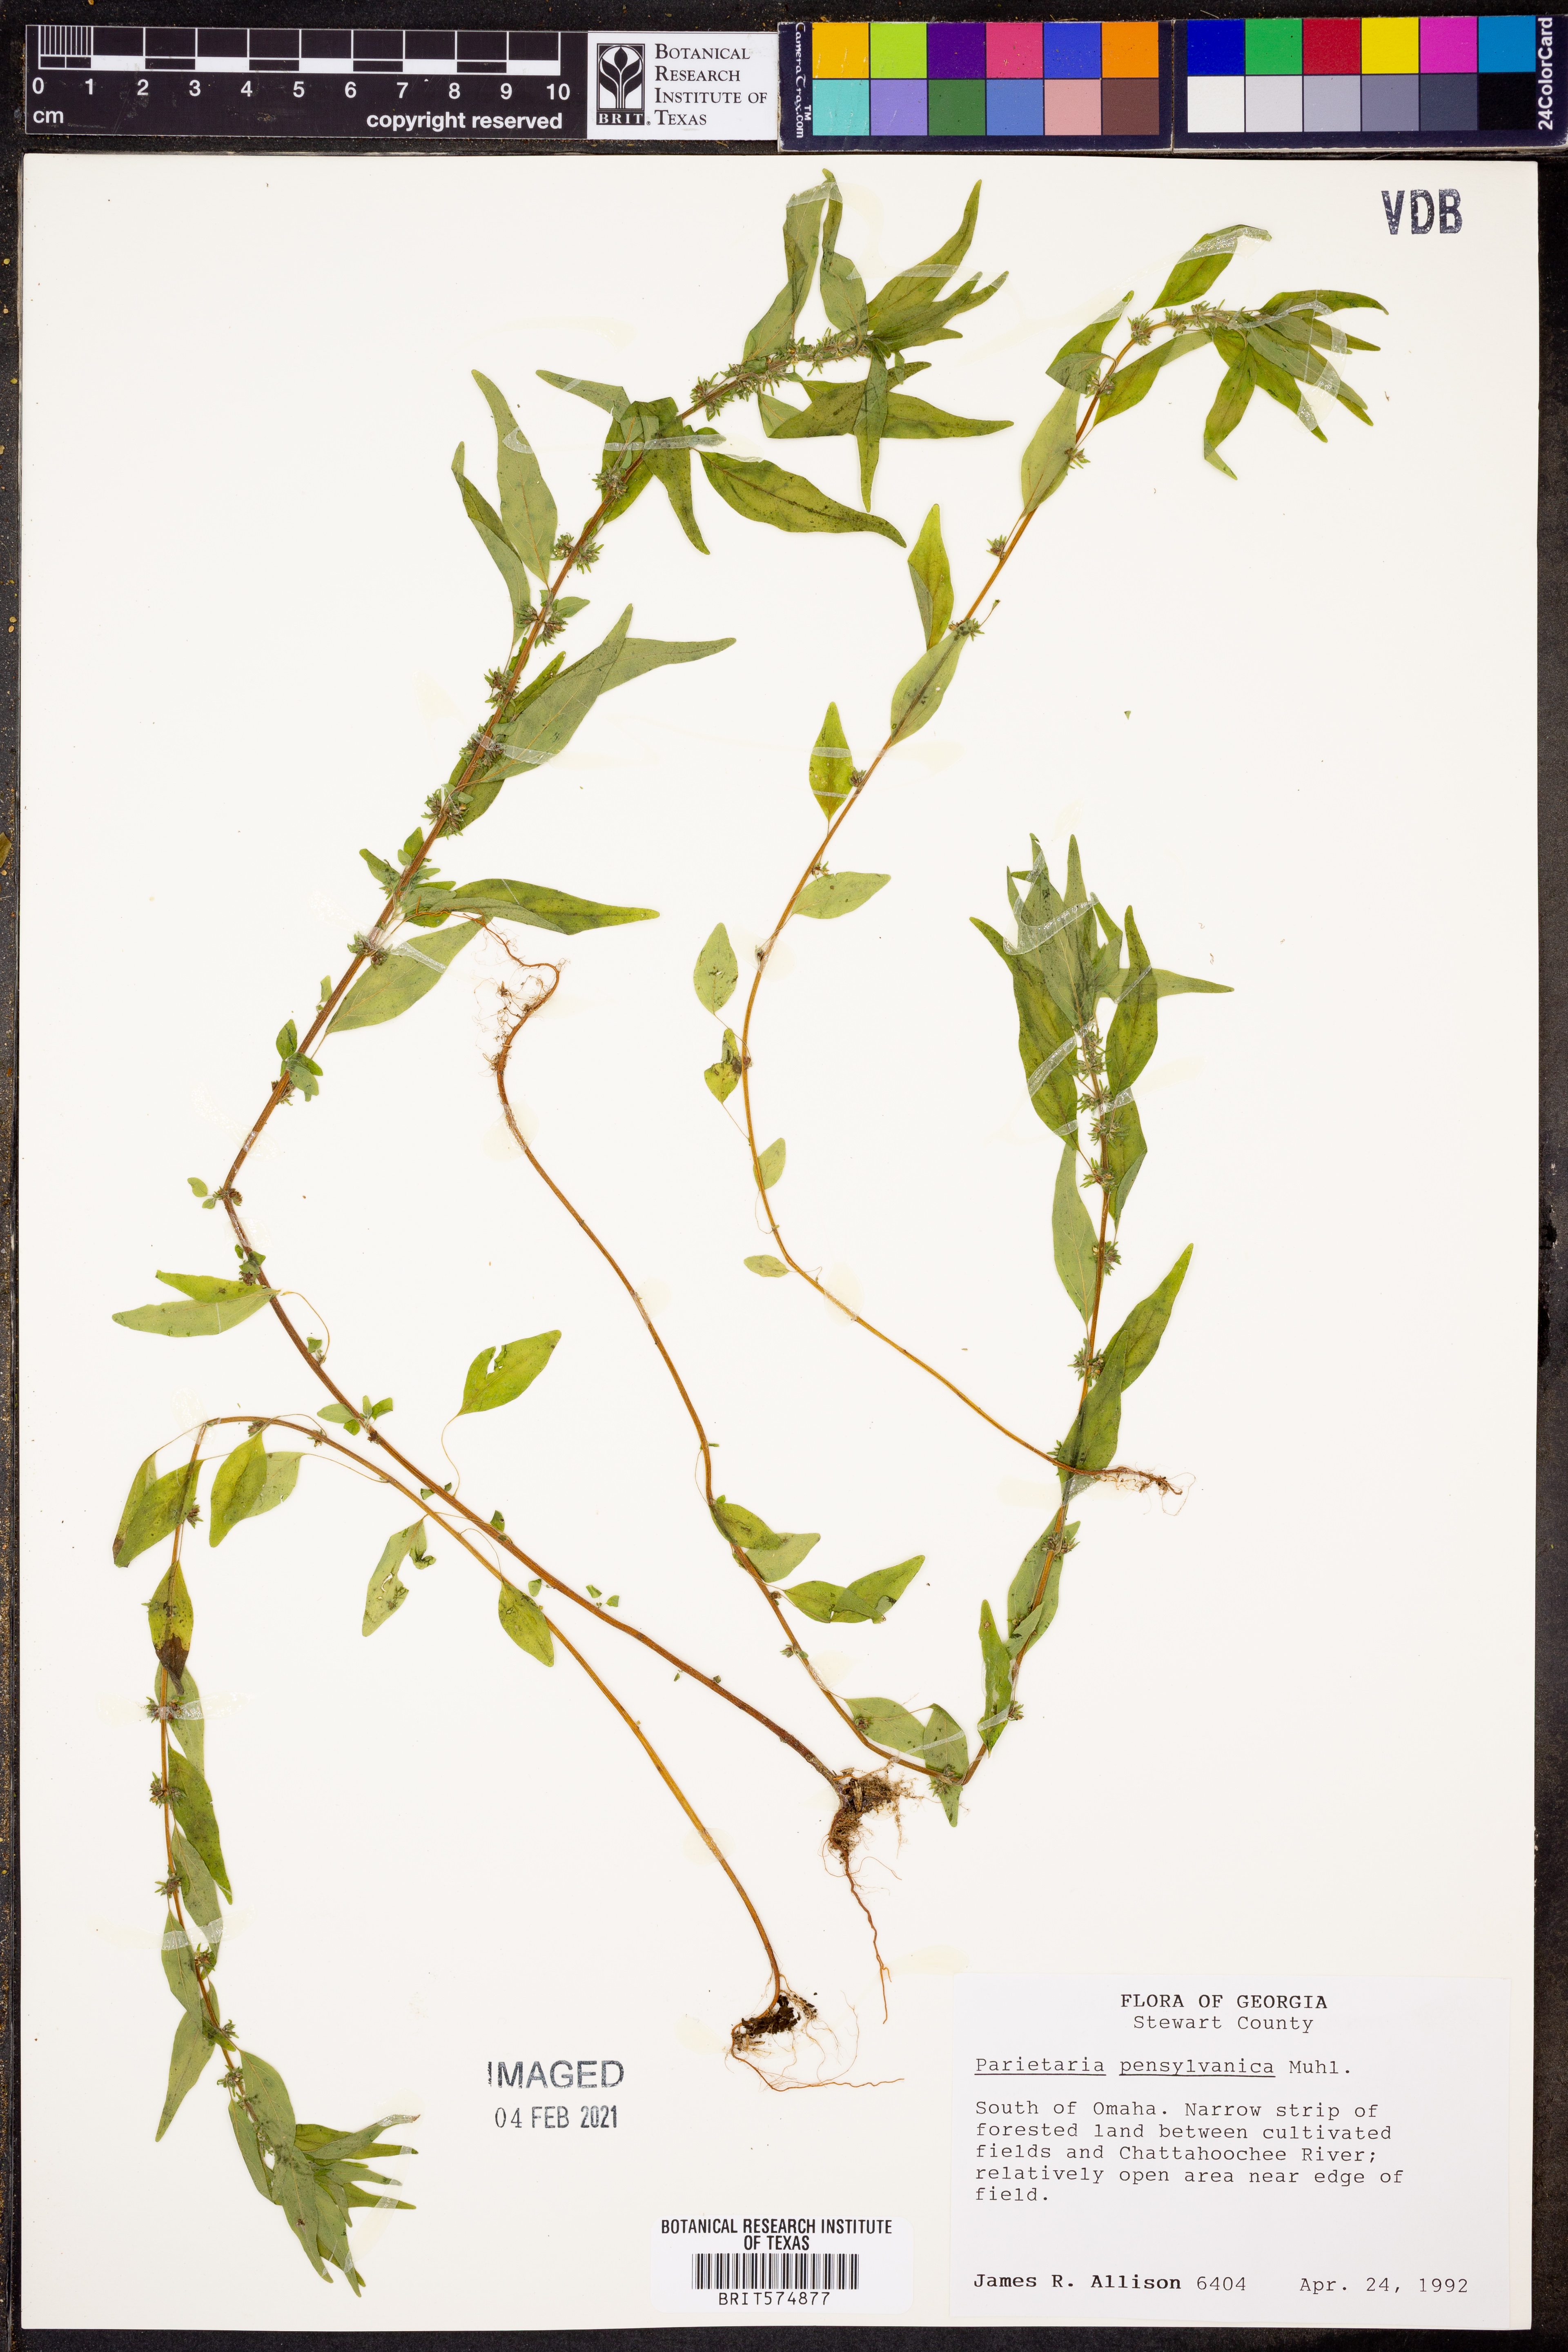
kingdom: Plantae
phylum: Tracheophyta
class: Magnoliopsida
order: Rosales
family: Urticaceae
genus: Parietaria
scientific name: Parietaria pensylvanica
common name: Pennsylvania pellitory
